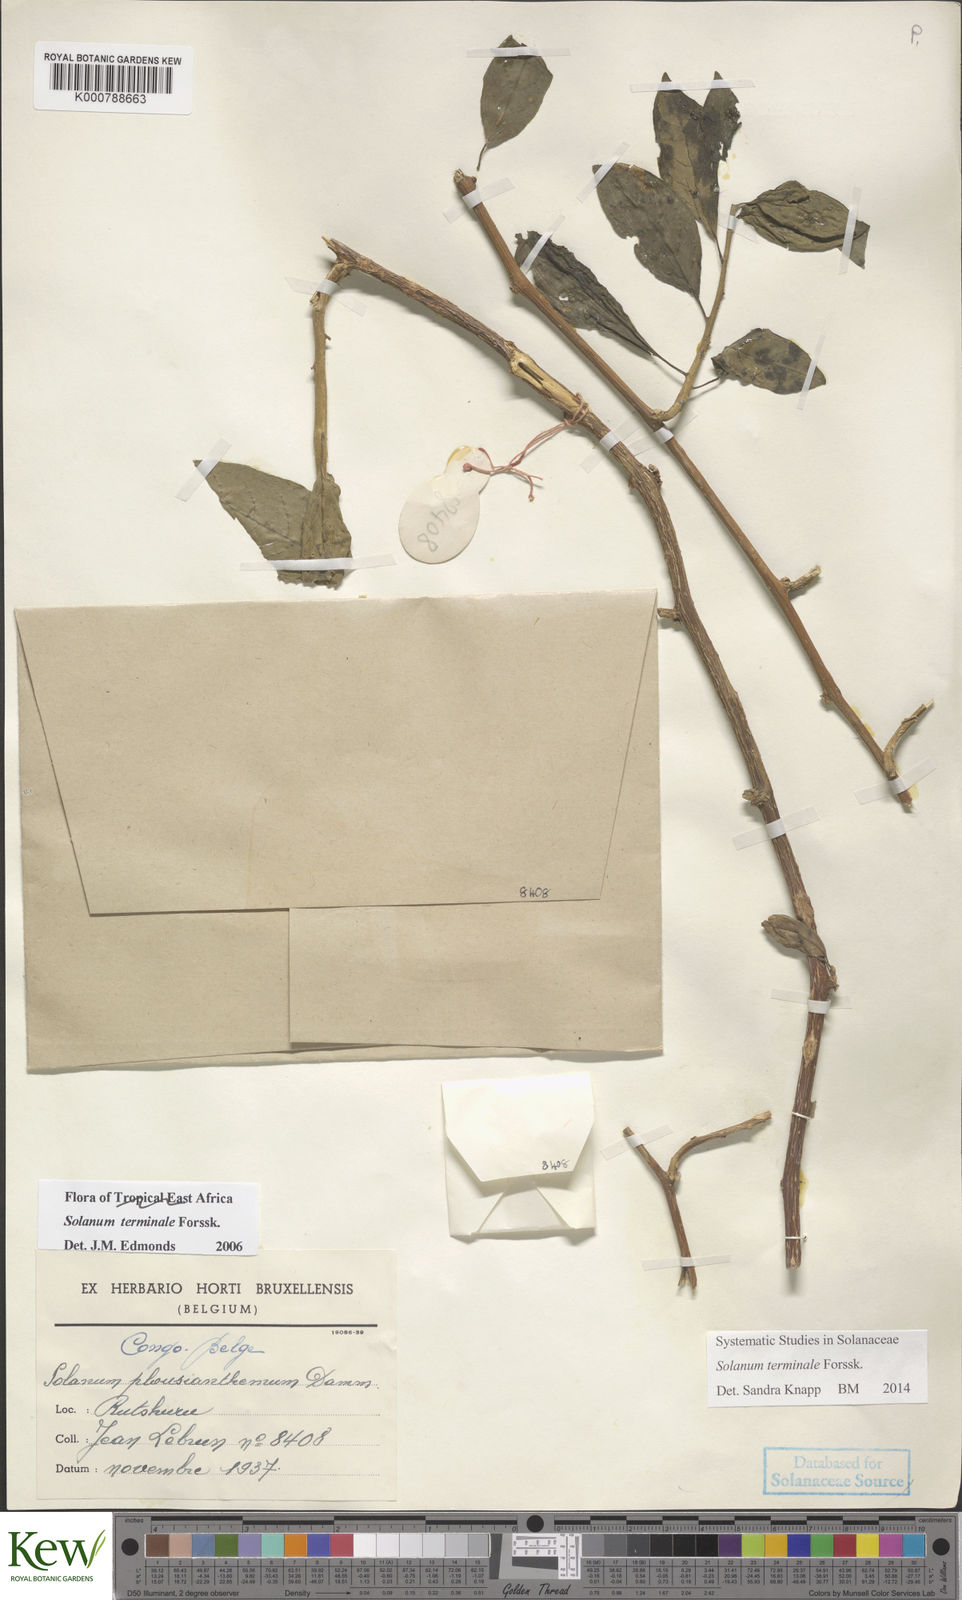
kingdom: Plantae
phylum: Tracheophyta
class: Magnoliopsida
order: Solanales
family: Solanaceae
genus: Solanum
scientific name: Solanum terminale
